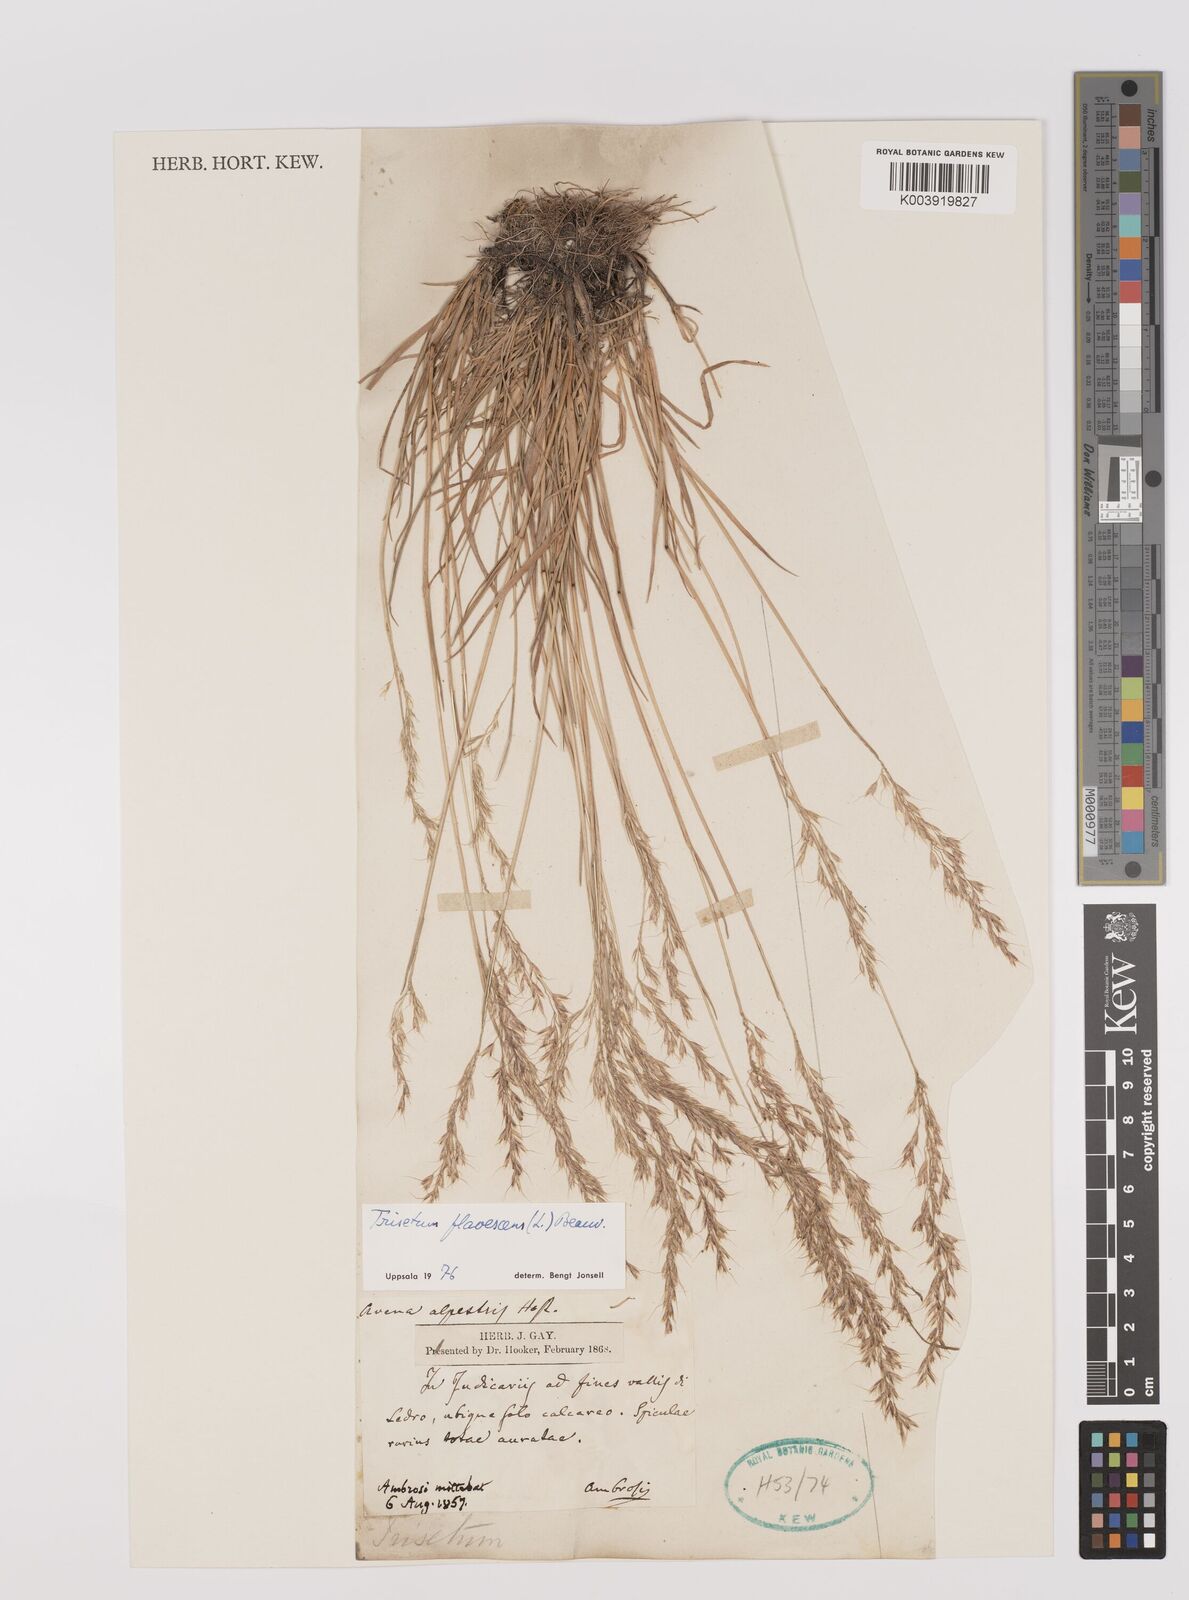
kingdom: Plantae
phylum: Tracheophyta
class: Liliopsida
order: Poales
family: Poaceae
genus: Trisetum
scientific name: Trisetum flavescens
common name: Yellow oat-grass
